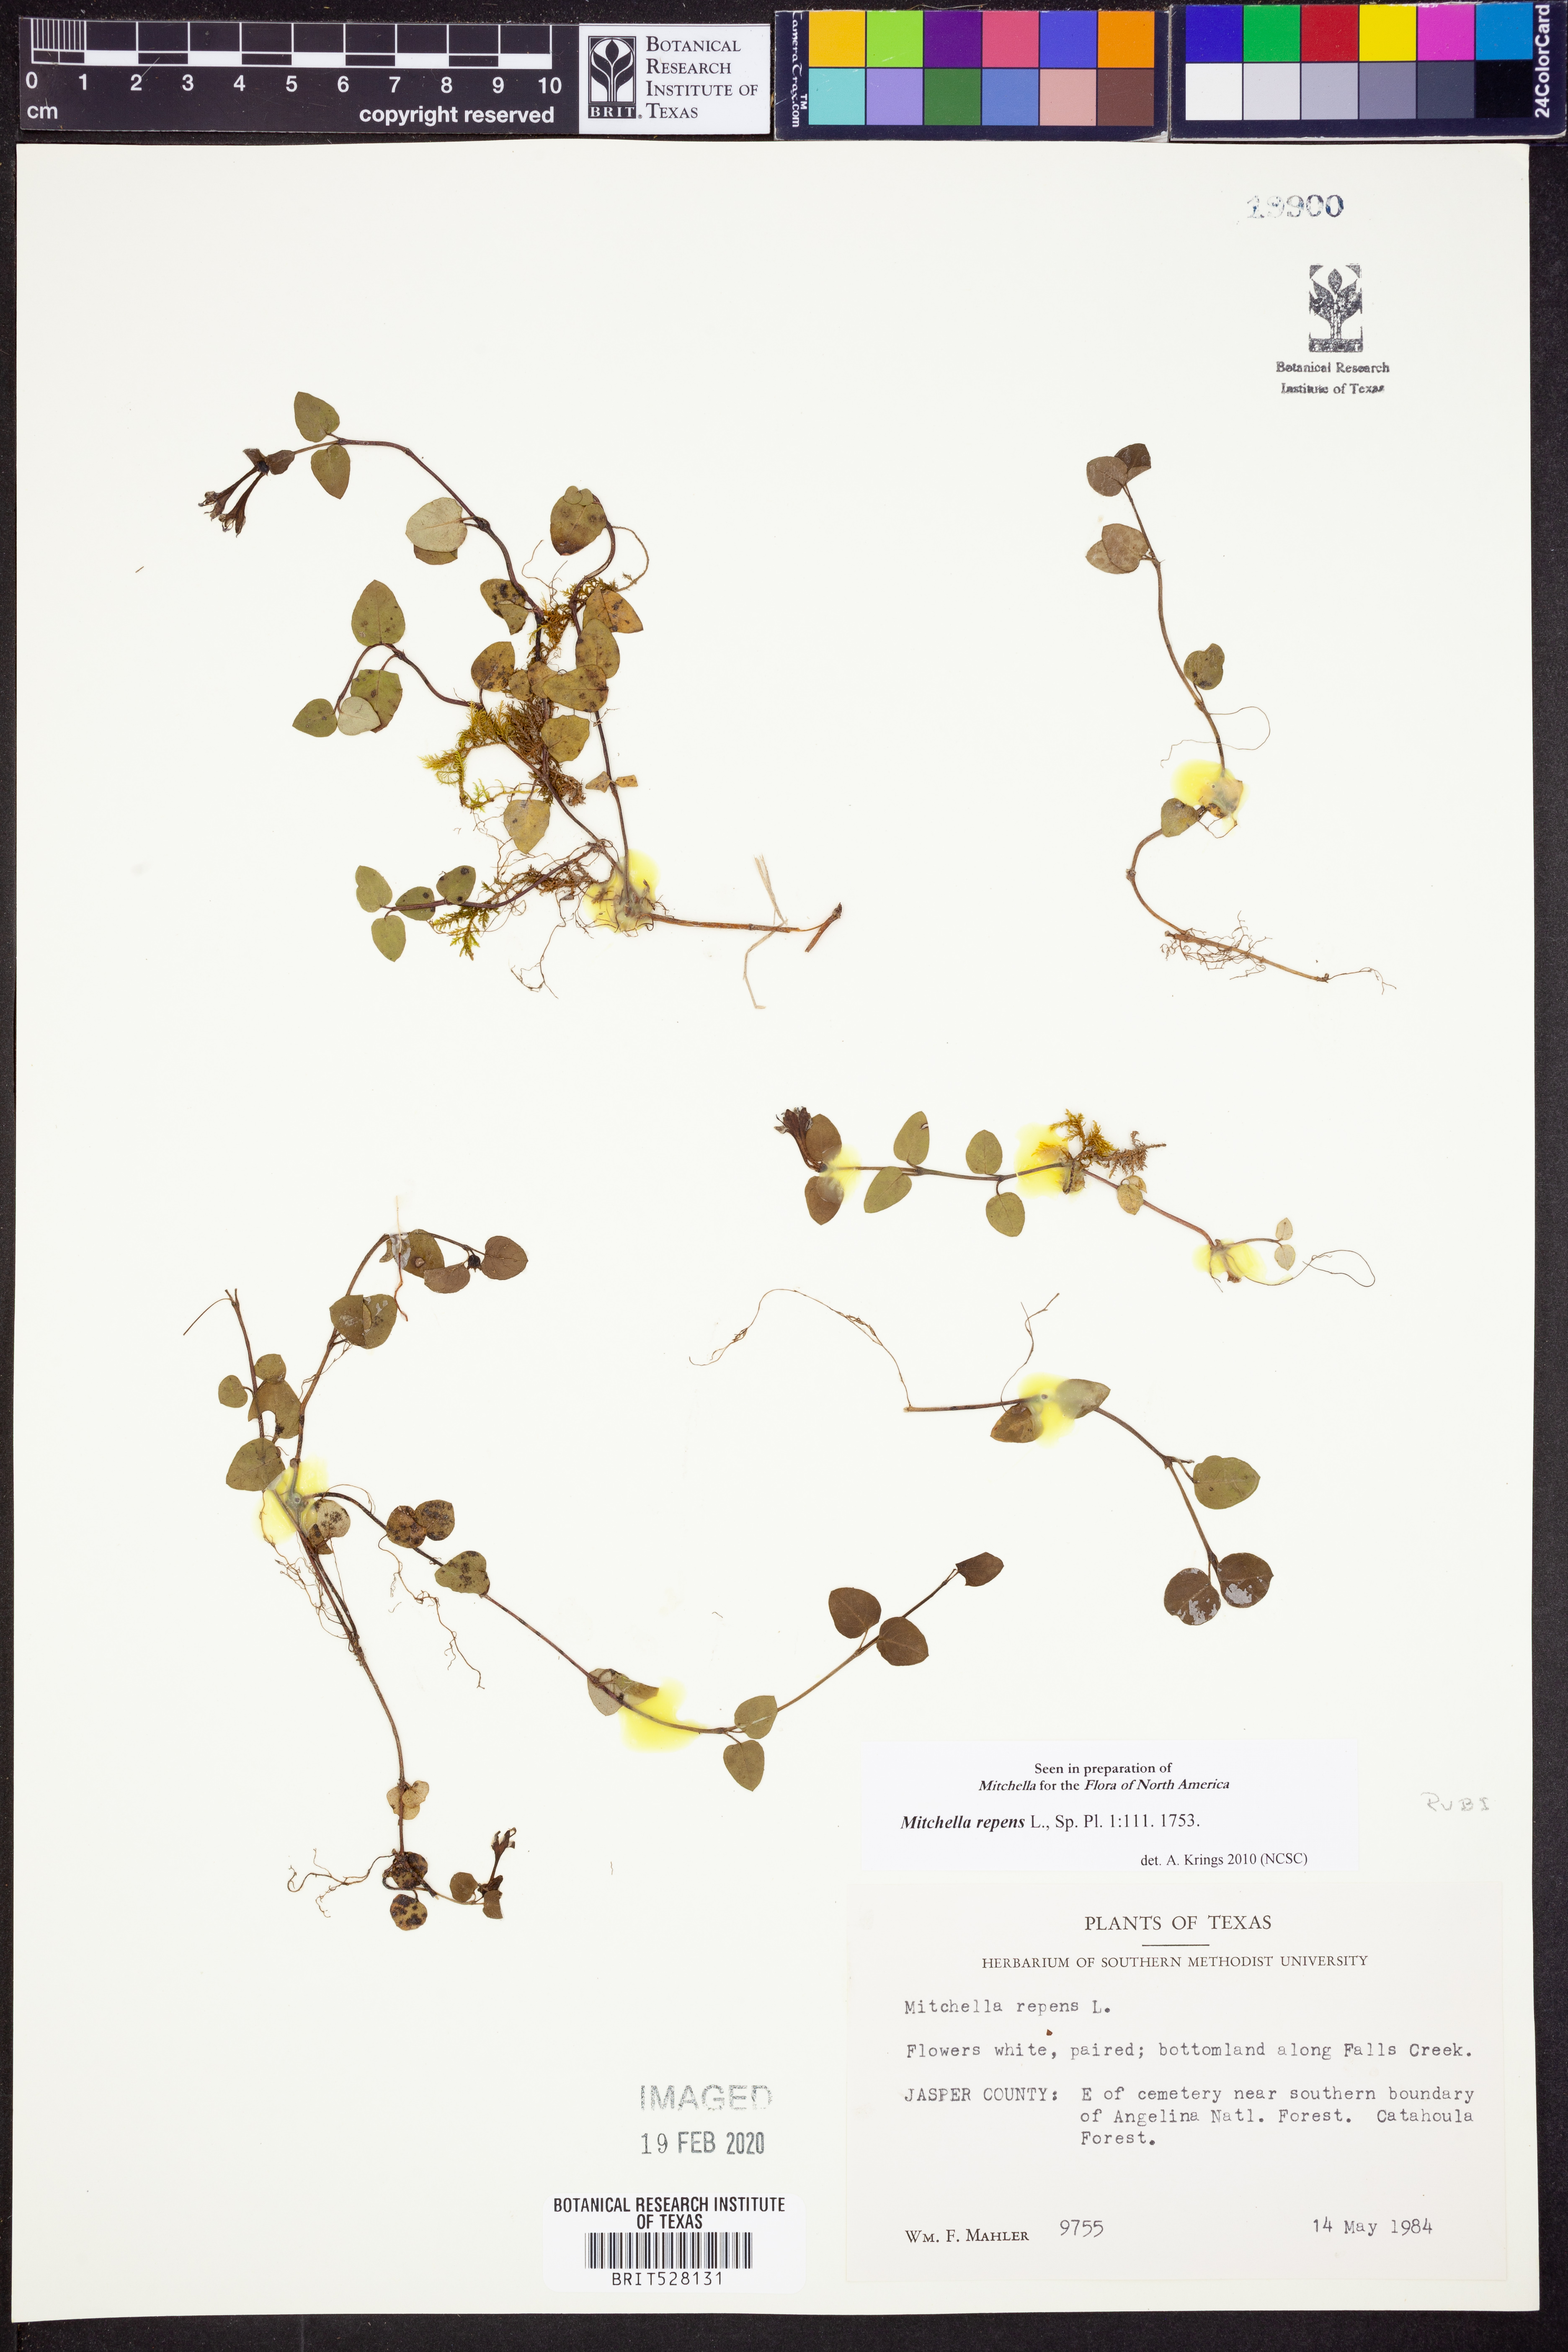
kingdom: Plantae
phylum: Tracheophyta
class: Magnoliopsida
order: Gentianales
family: Rubiaceae
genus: Mitchella
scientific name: Mitchella repens
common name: Partridge-berry
